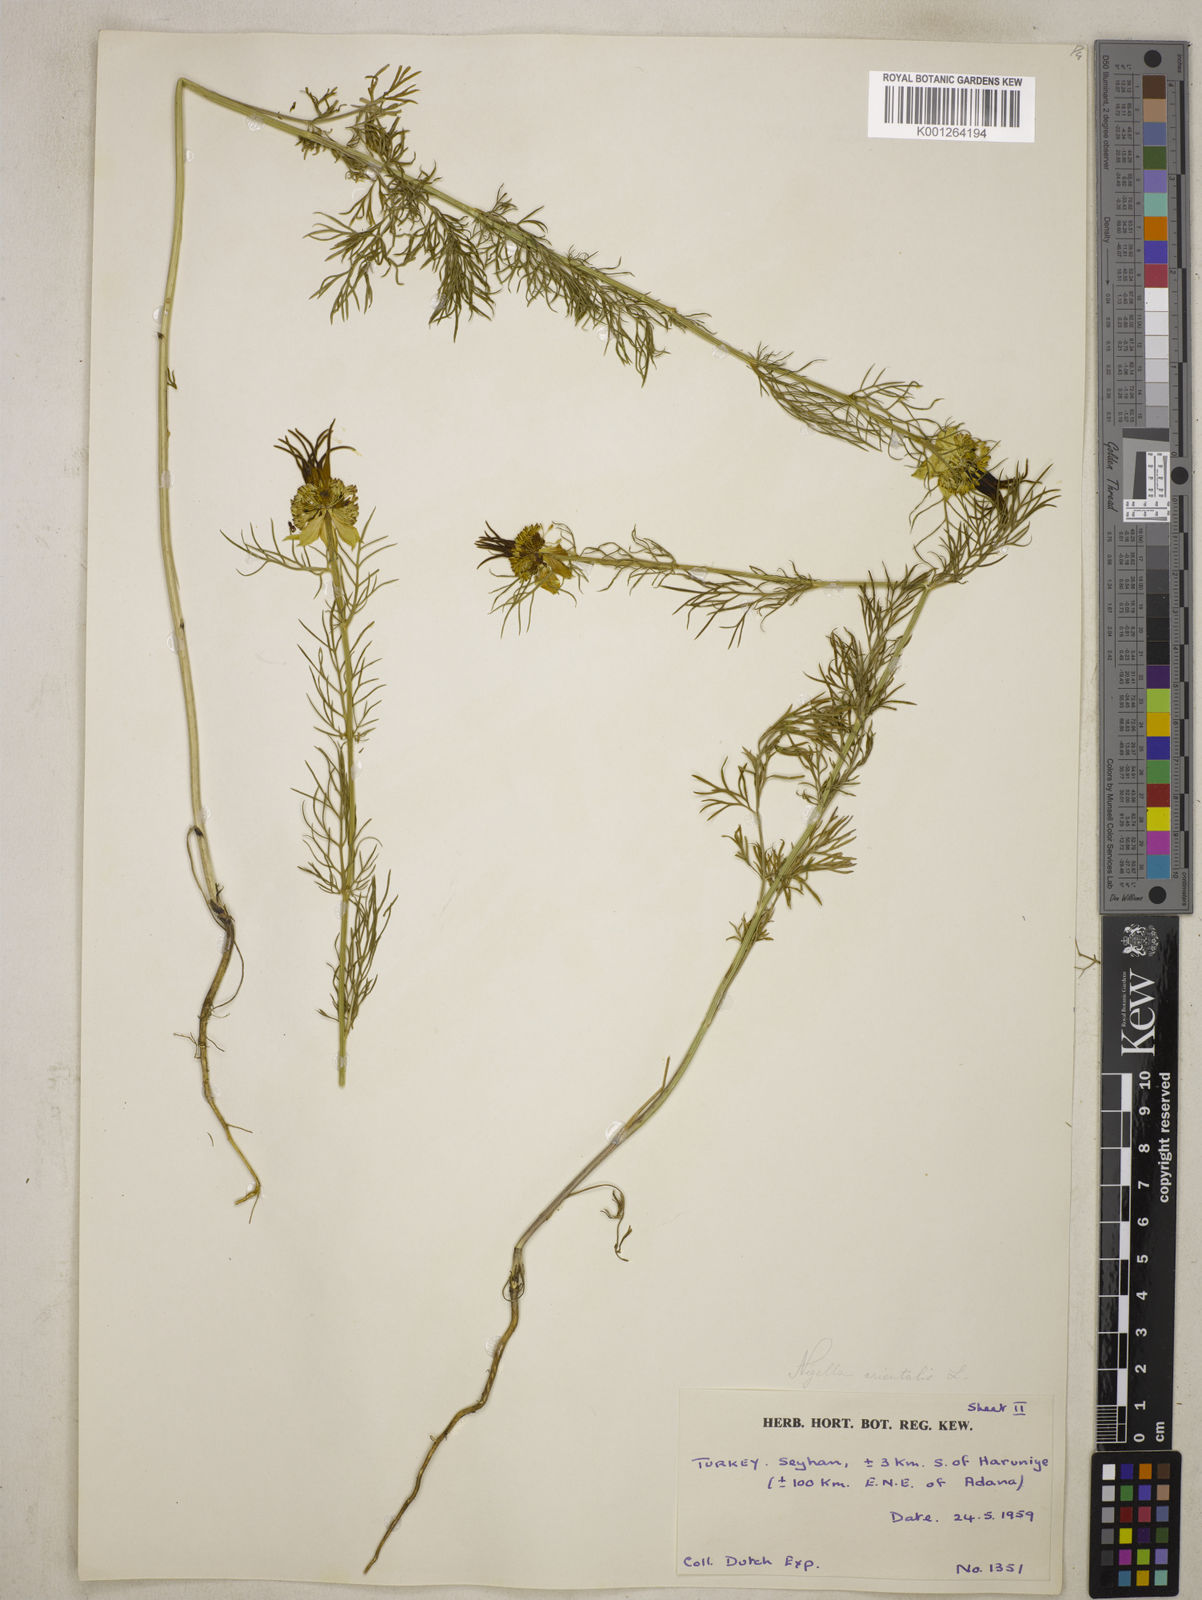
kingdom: Plantae
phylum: Tracheophyta
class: Magnoliopsida
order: Ranunculales
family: Ranunculaceae
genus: Nigella
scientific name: Nigella orientalis
